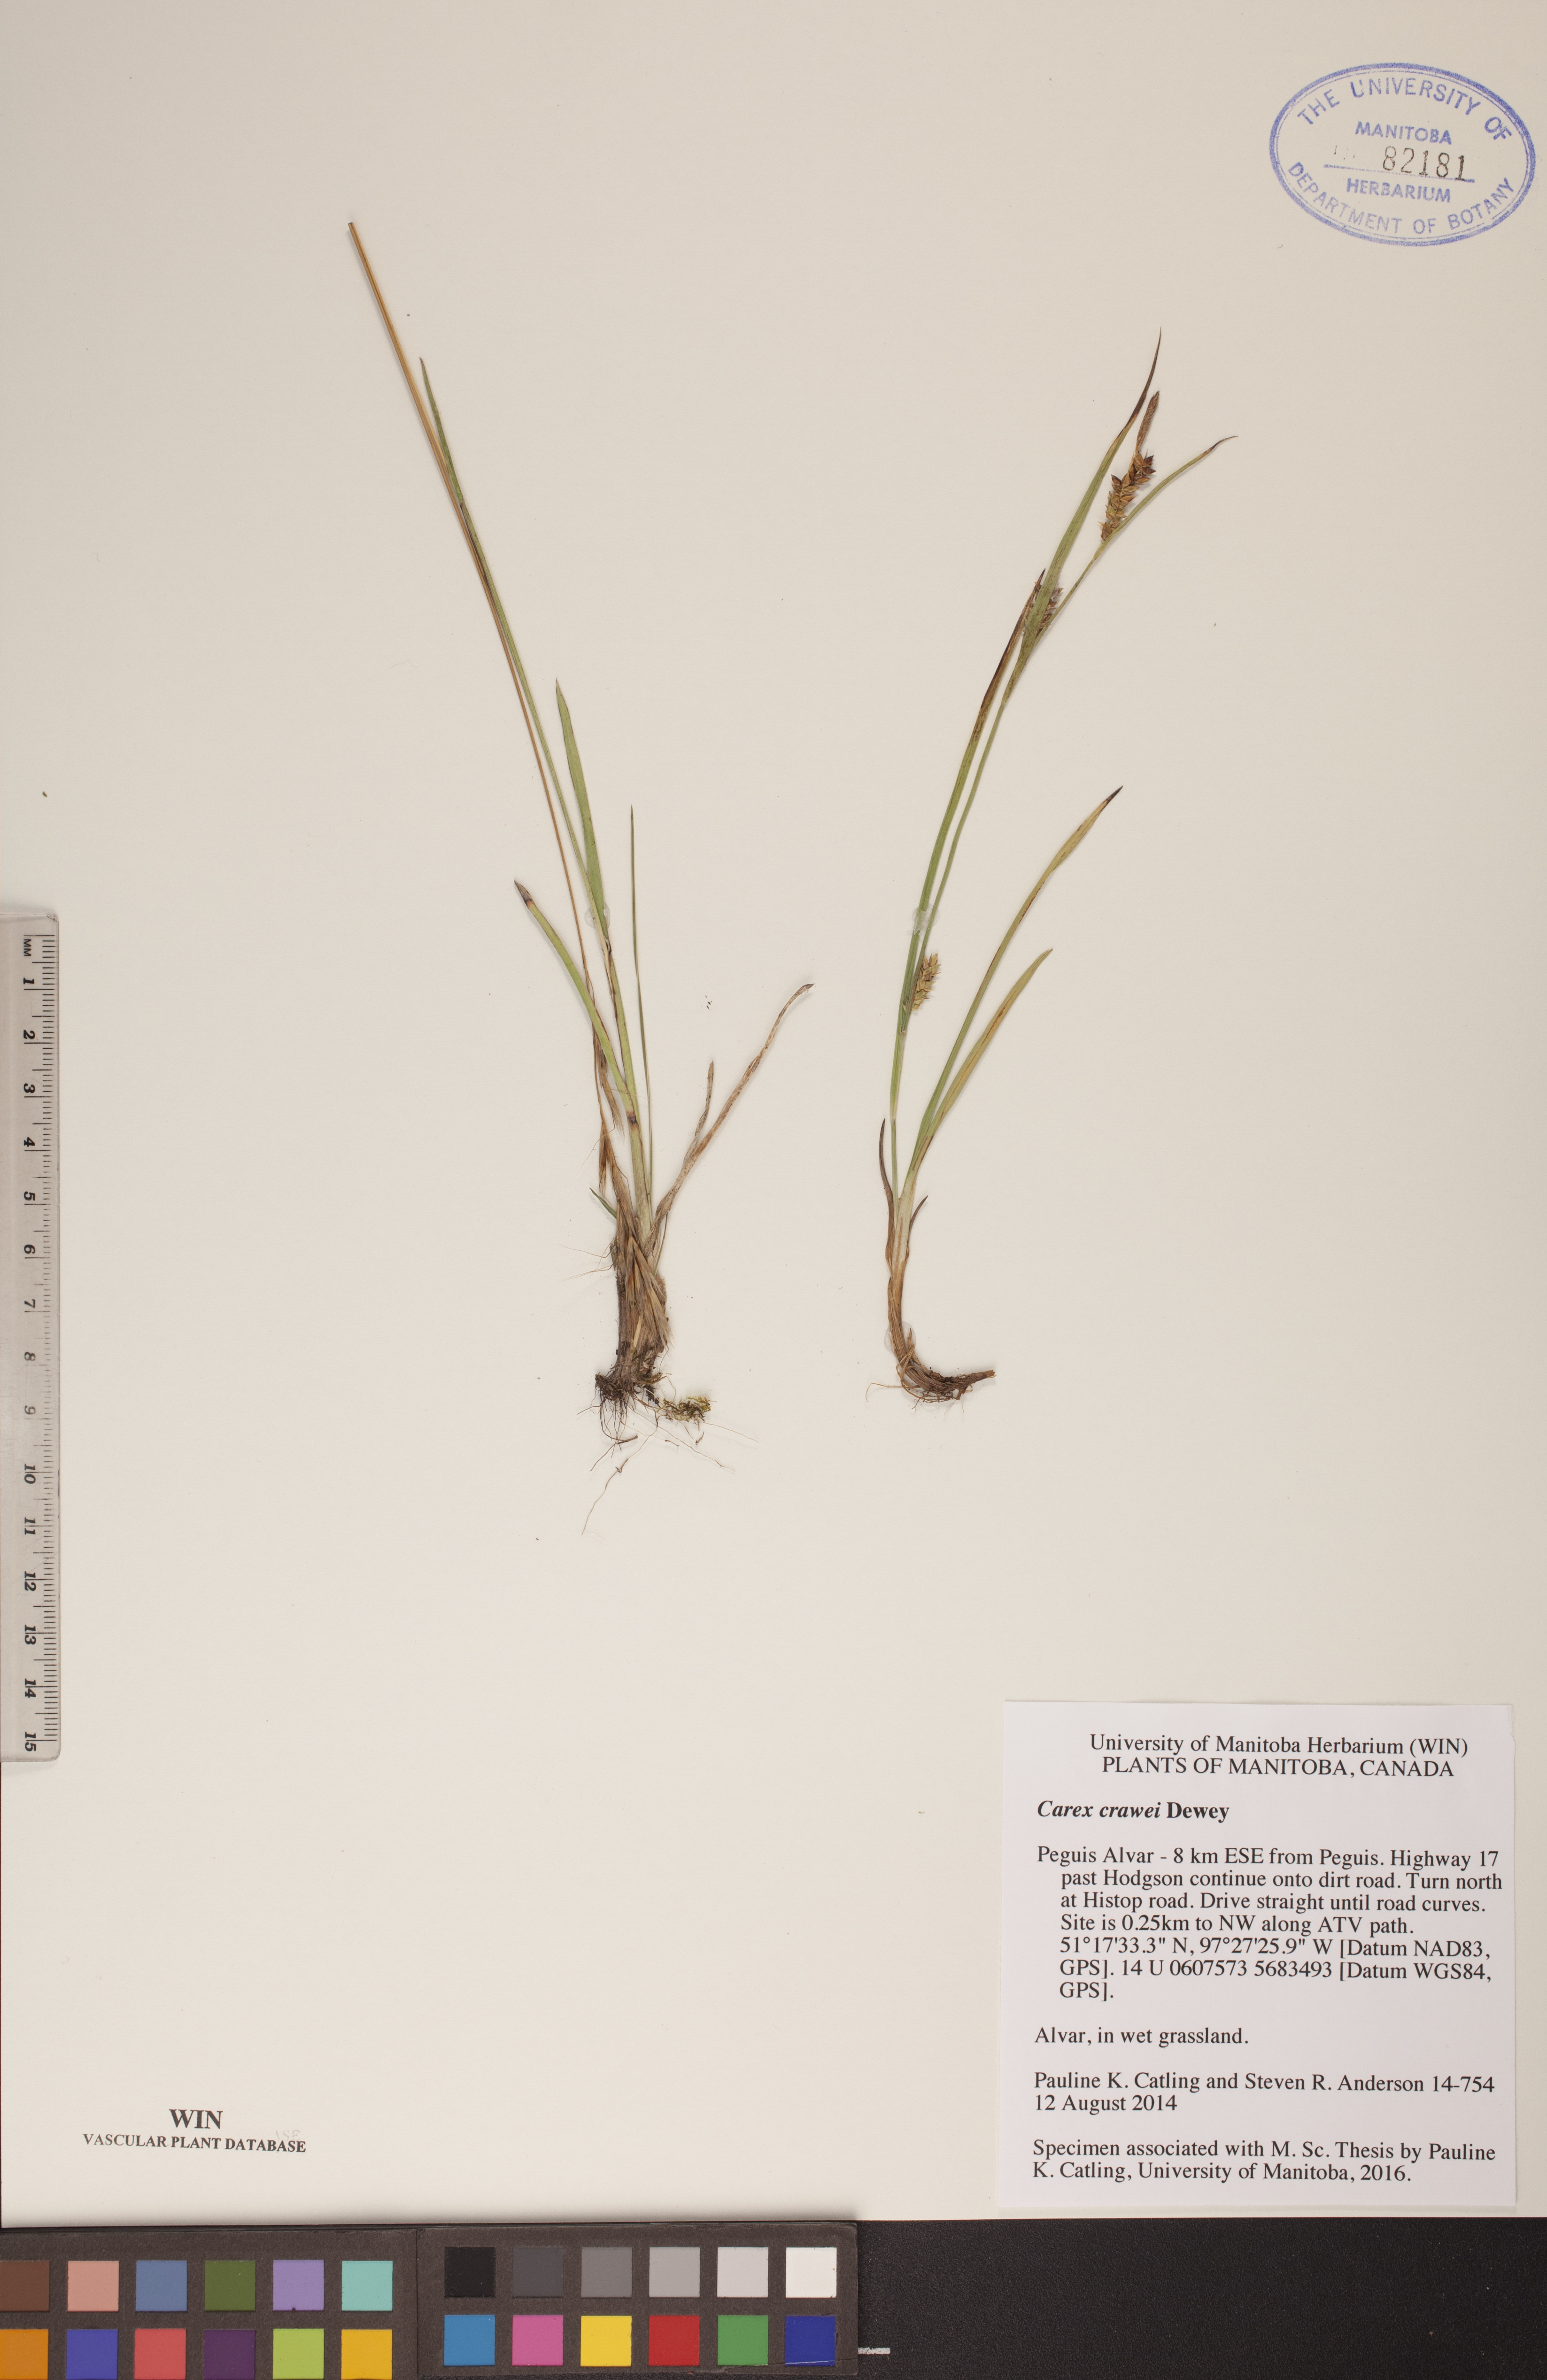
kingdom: Plantae
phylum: Tracheophyta
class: Liliopsida
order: Poales
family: Cyperaceae
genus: Carex
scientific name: Carex crawei
